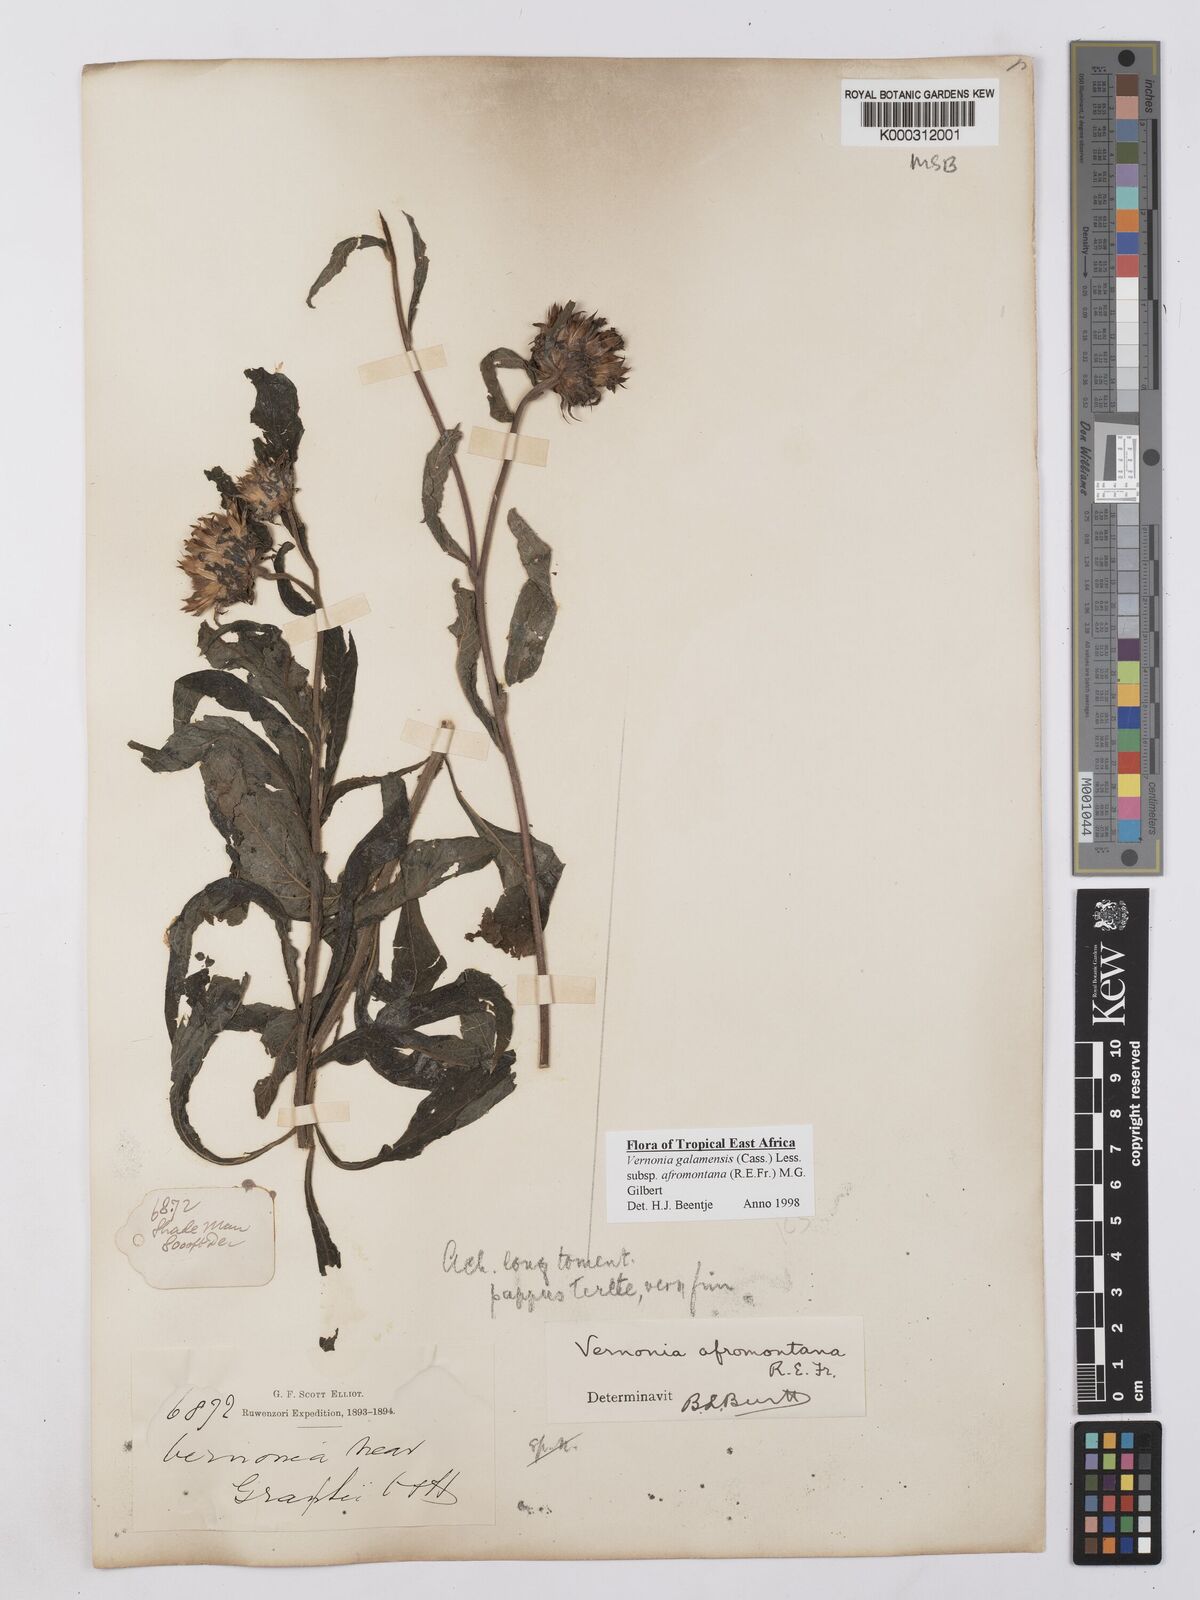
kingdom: Plantae
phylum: Tracheophyta
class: Magnoliopsida
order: Asterales
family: Asteraceae
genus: Vernonia
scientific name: Vernonia galamensis
